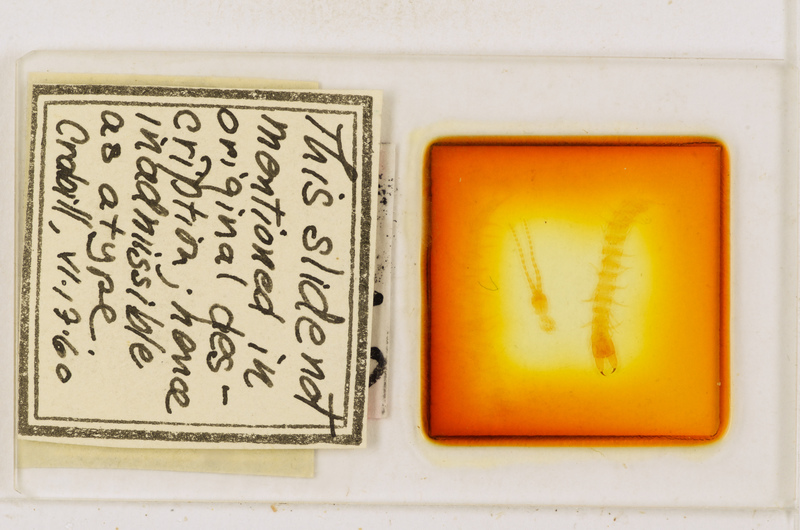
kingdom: Animalia
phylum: Arthropoda
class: Chilopoda
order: Geophilomorpha
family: Geophilidae
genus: Pachymerium
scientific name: Pachymerium ferrugineum
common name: Centipede
